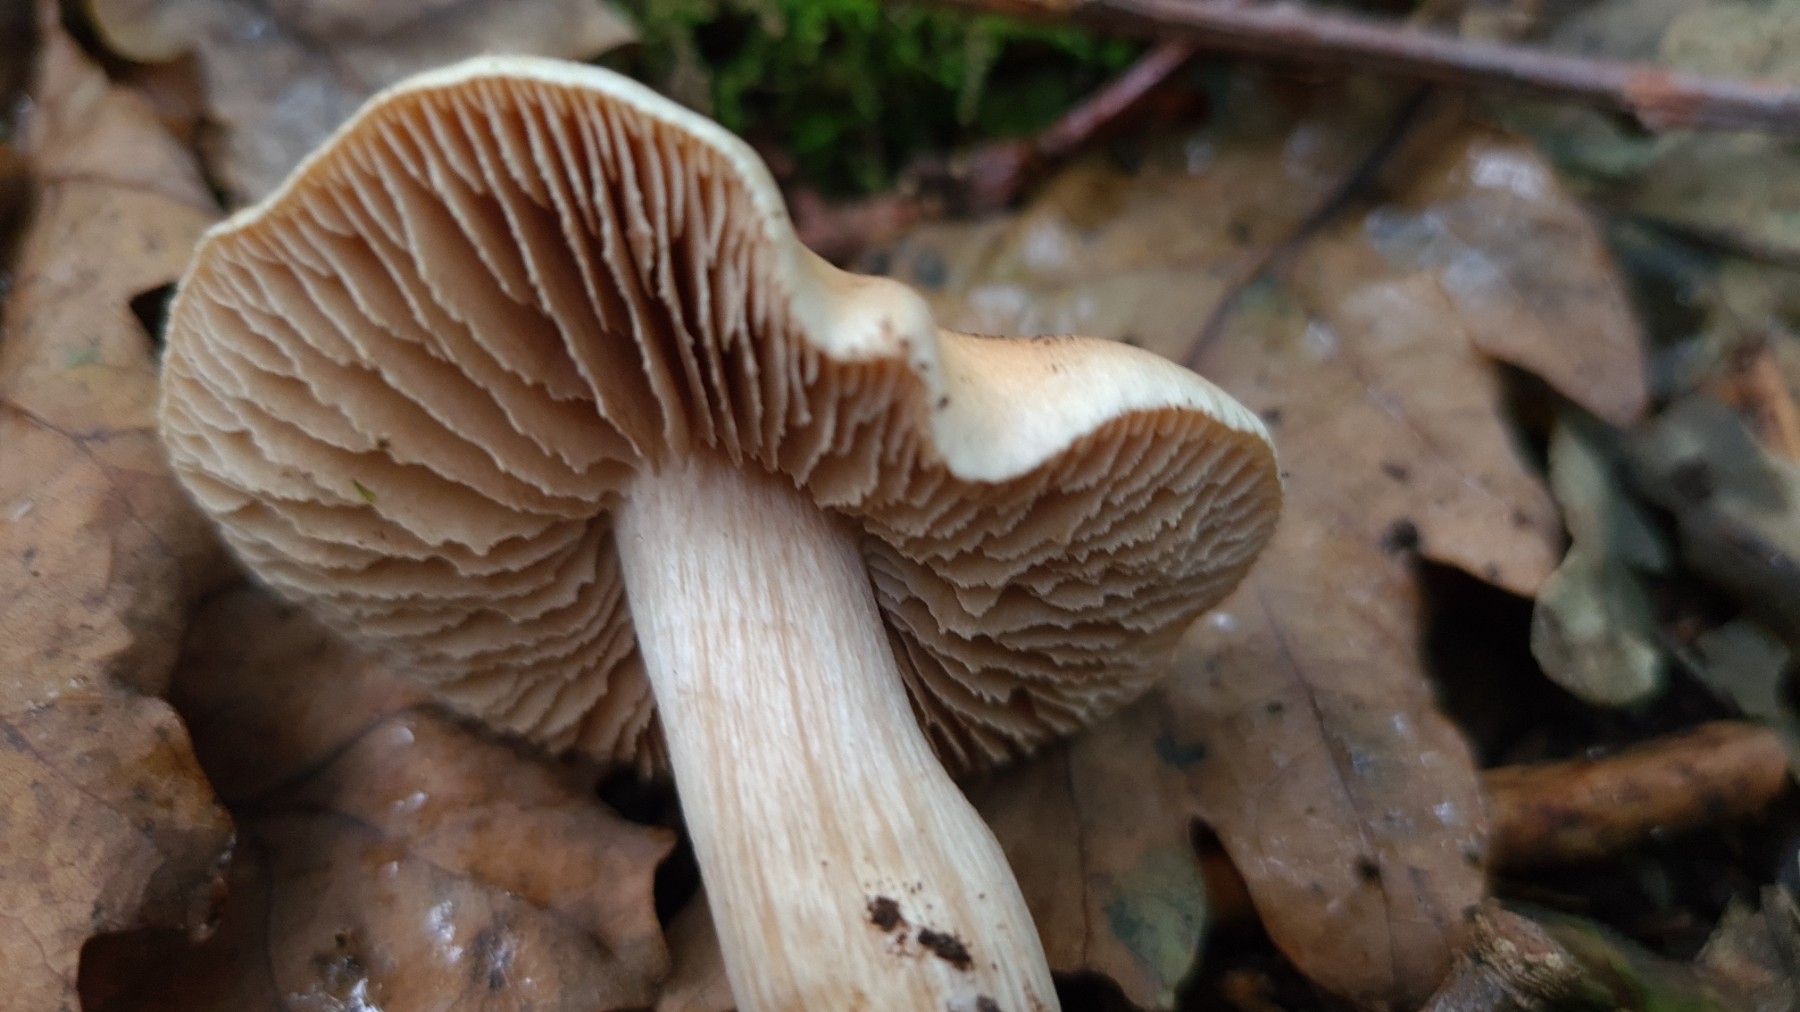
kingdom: Fungi
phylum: Basidiomycota
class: Agaricomycetes
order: Agaricales
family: Hymenogastraceae
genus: Hebeloma
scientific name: Hebeloma sacchariolens
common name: sødtduftende tåreblad
